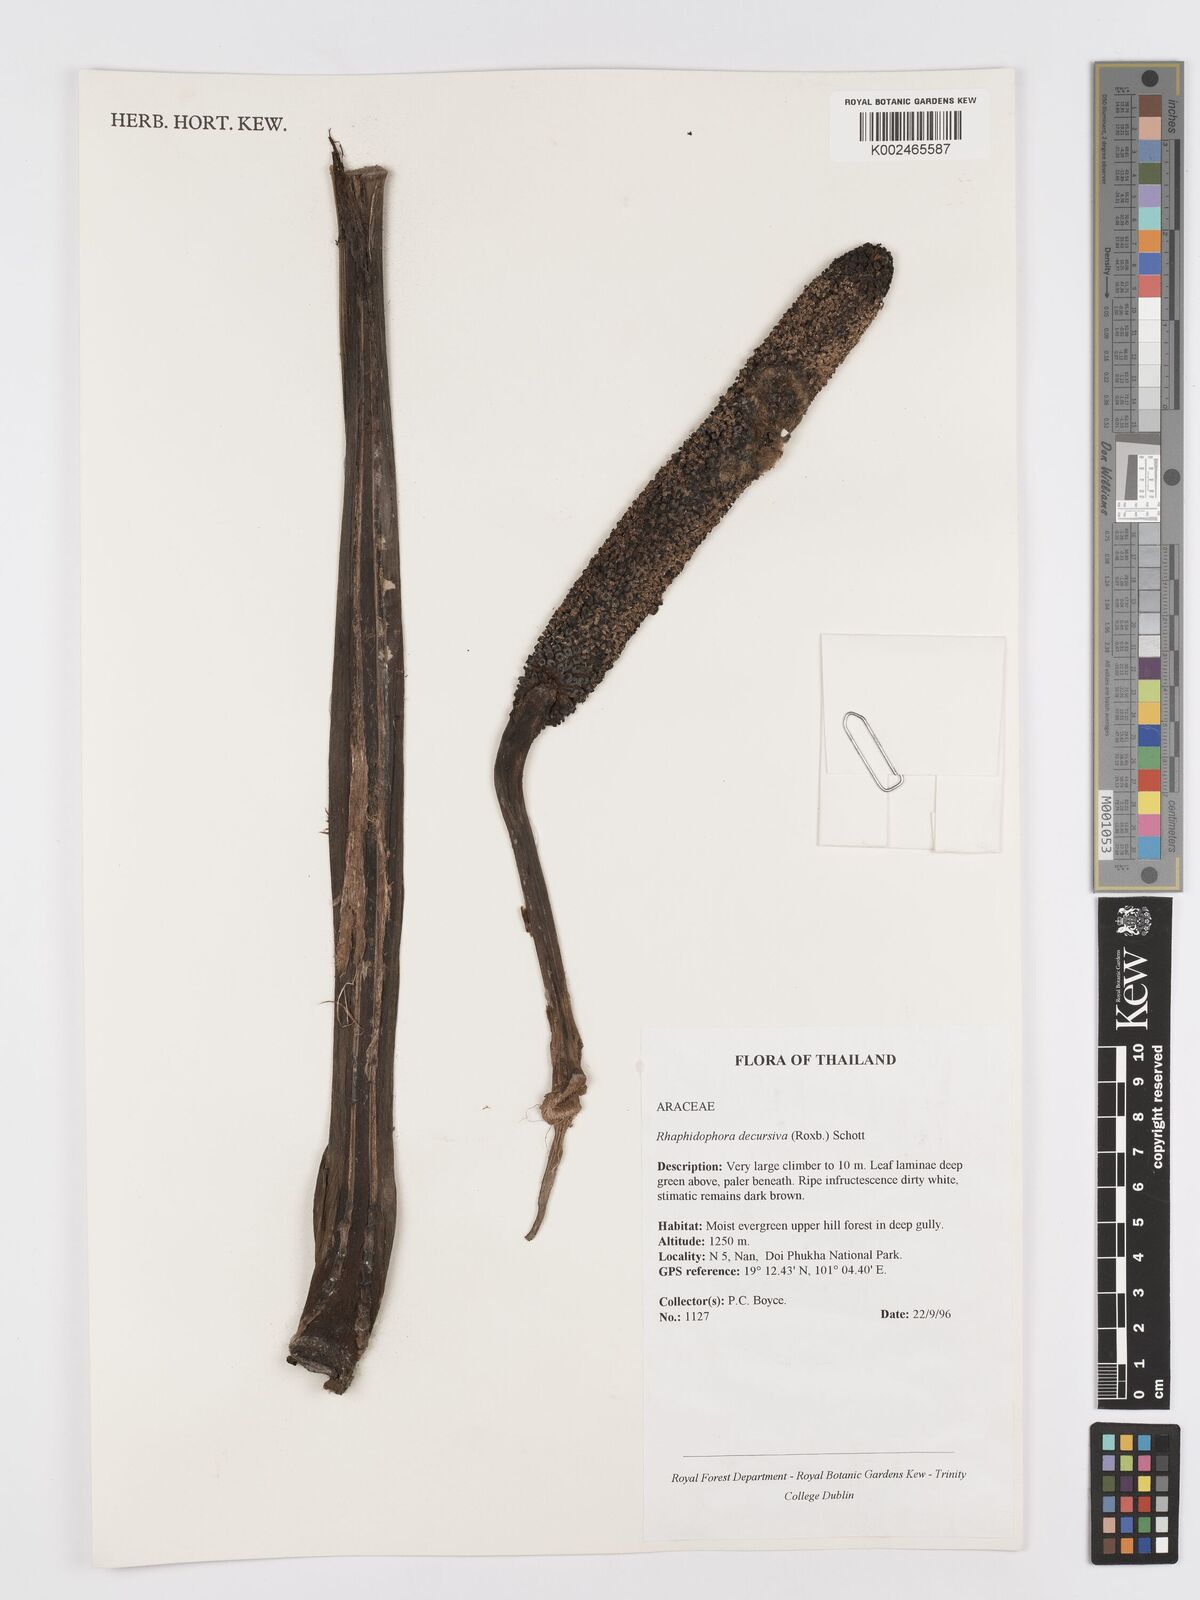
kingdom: Plantae
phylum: Tracheophyta
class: Liliopsida
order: Alismatales
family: Araceae
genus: Rhaphidophora
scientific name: Rhaphidophora decursiva
